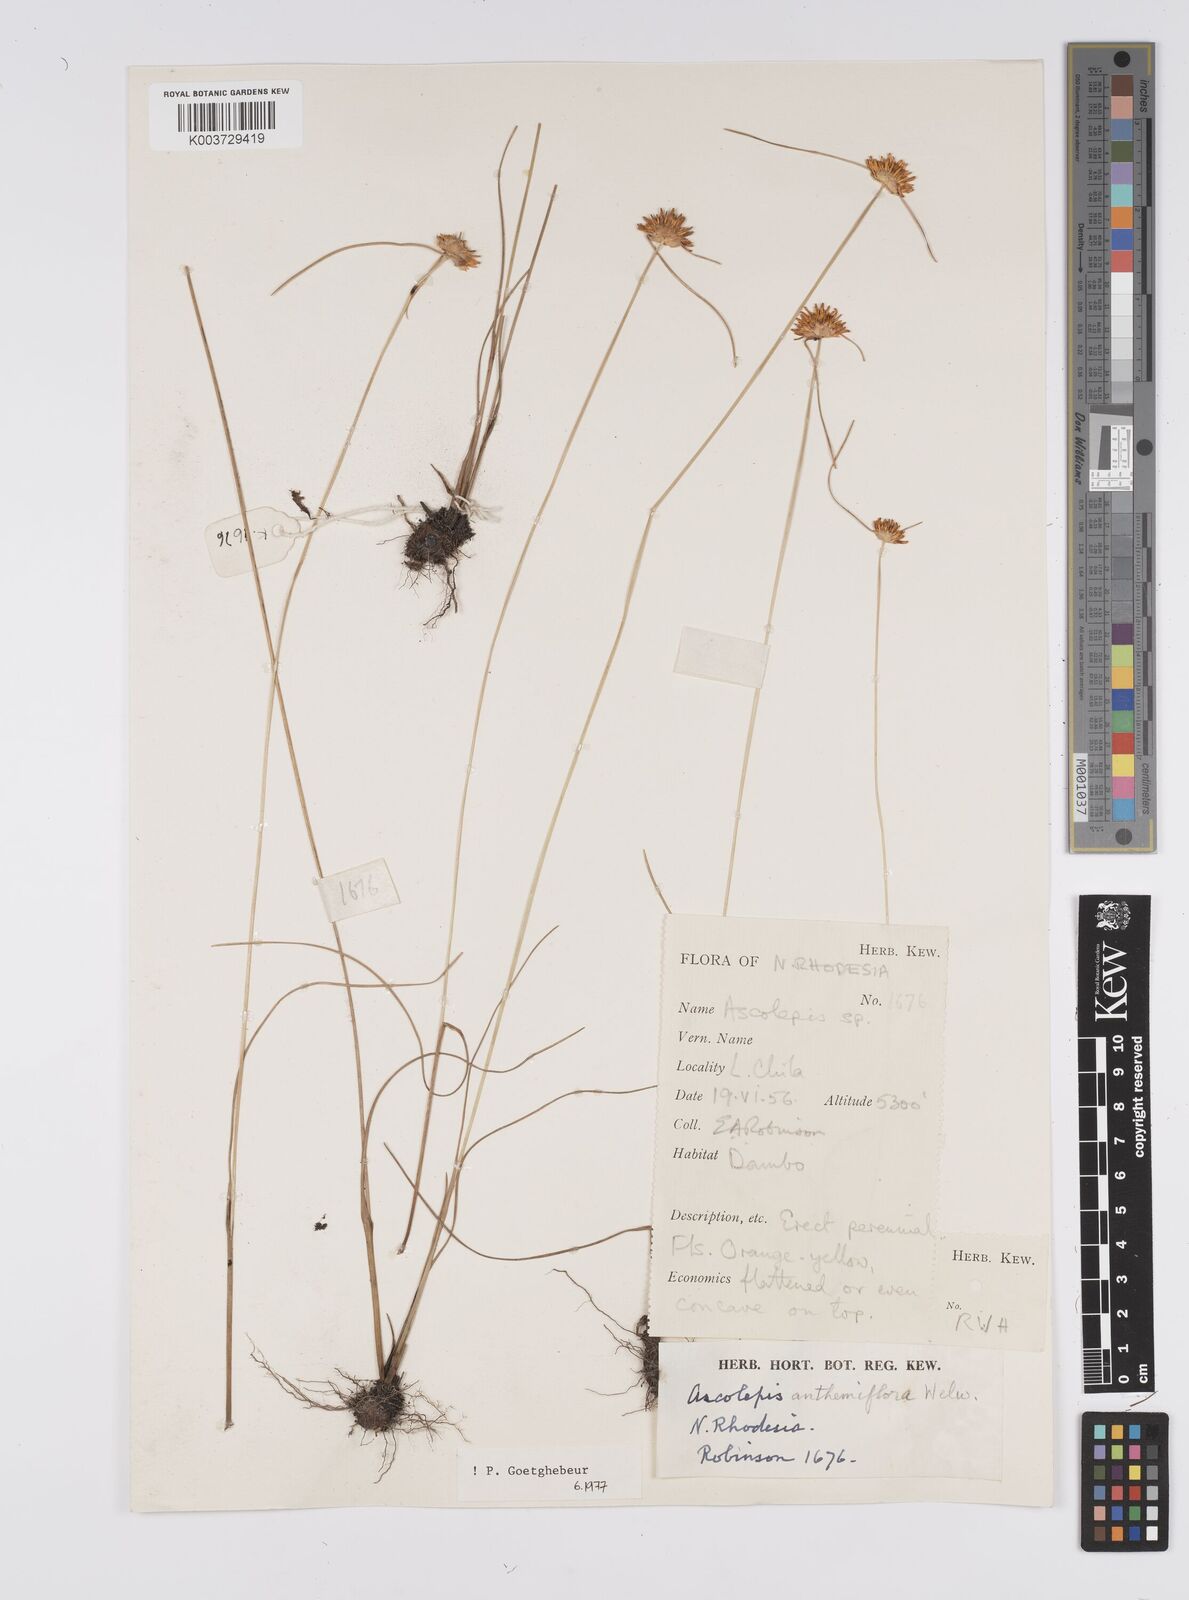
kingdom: Plantae
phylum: Tracheophyta
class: Liliopsida
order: Poales
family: Cyperaceae
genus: Cyperus
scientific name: Cyperus
